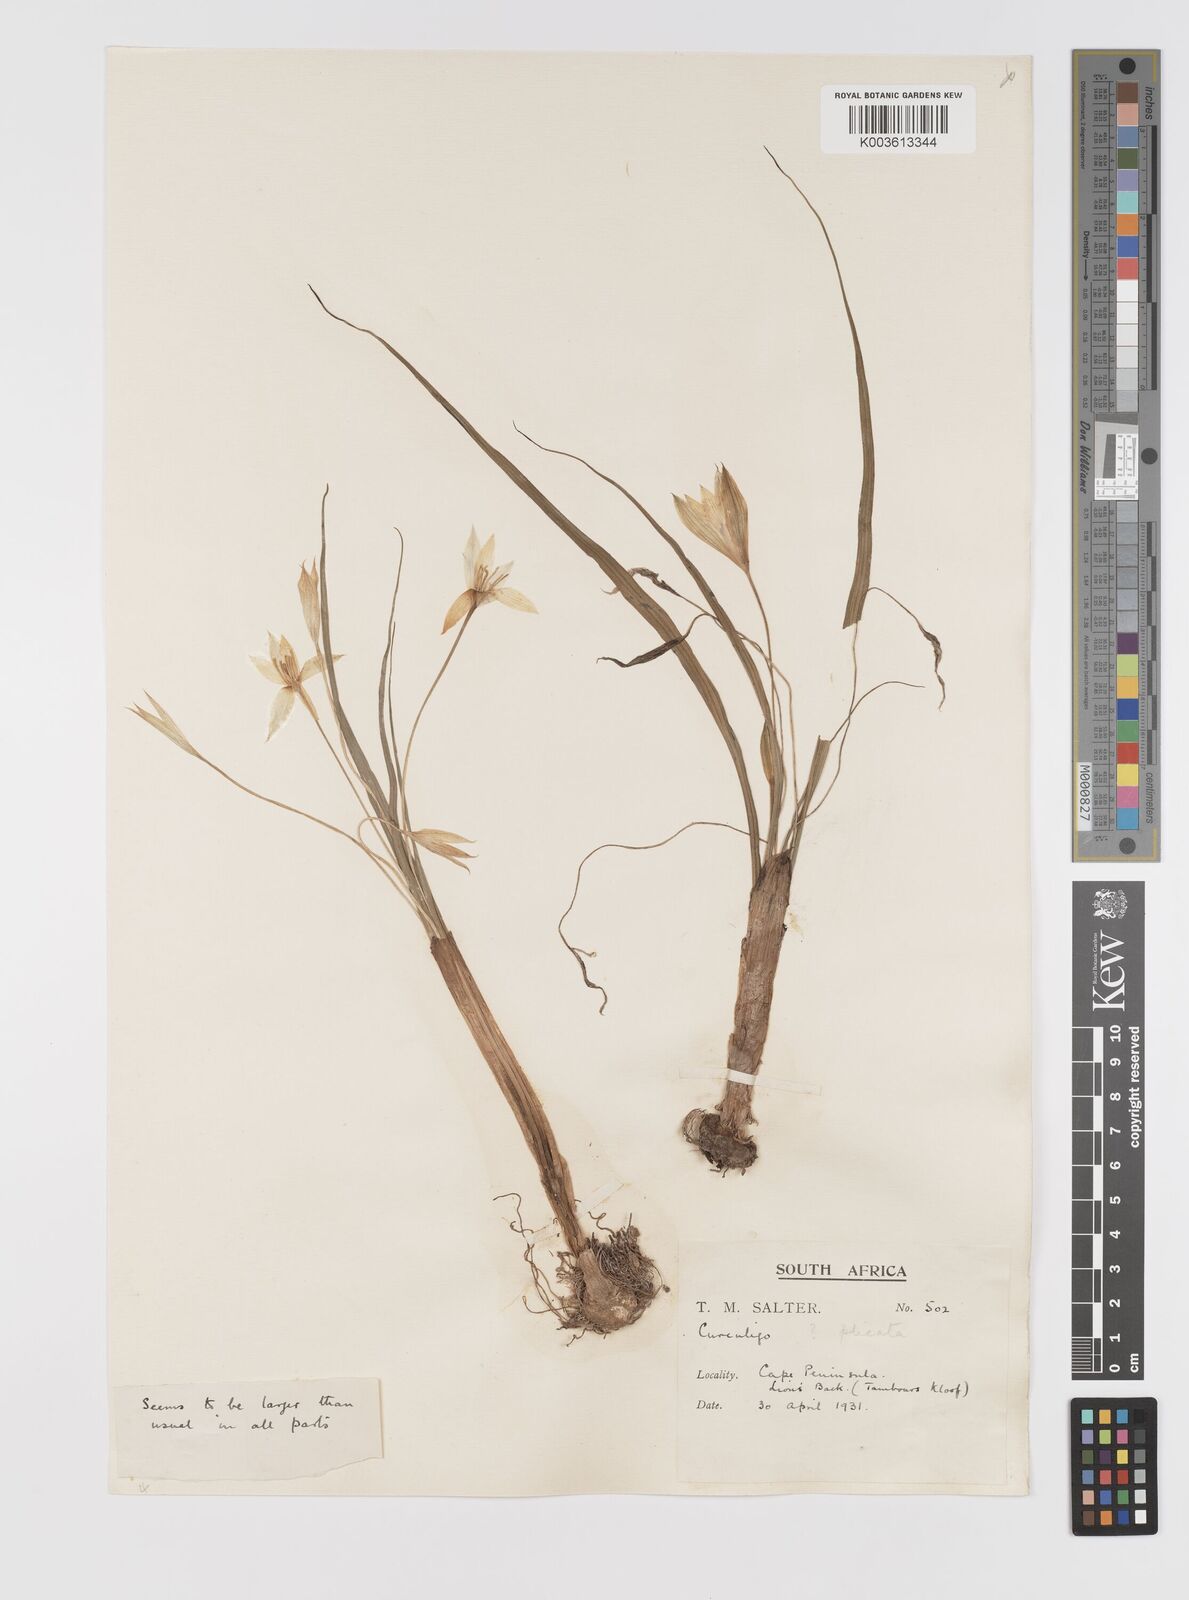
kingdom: Plantae
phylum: Tracheophyta
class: Liliopsida
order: Asparagales
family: Hypoxidaceae
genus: Empodium
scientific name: Empodium plicatum
